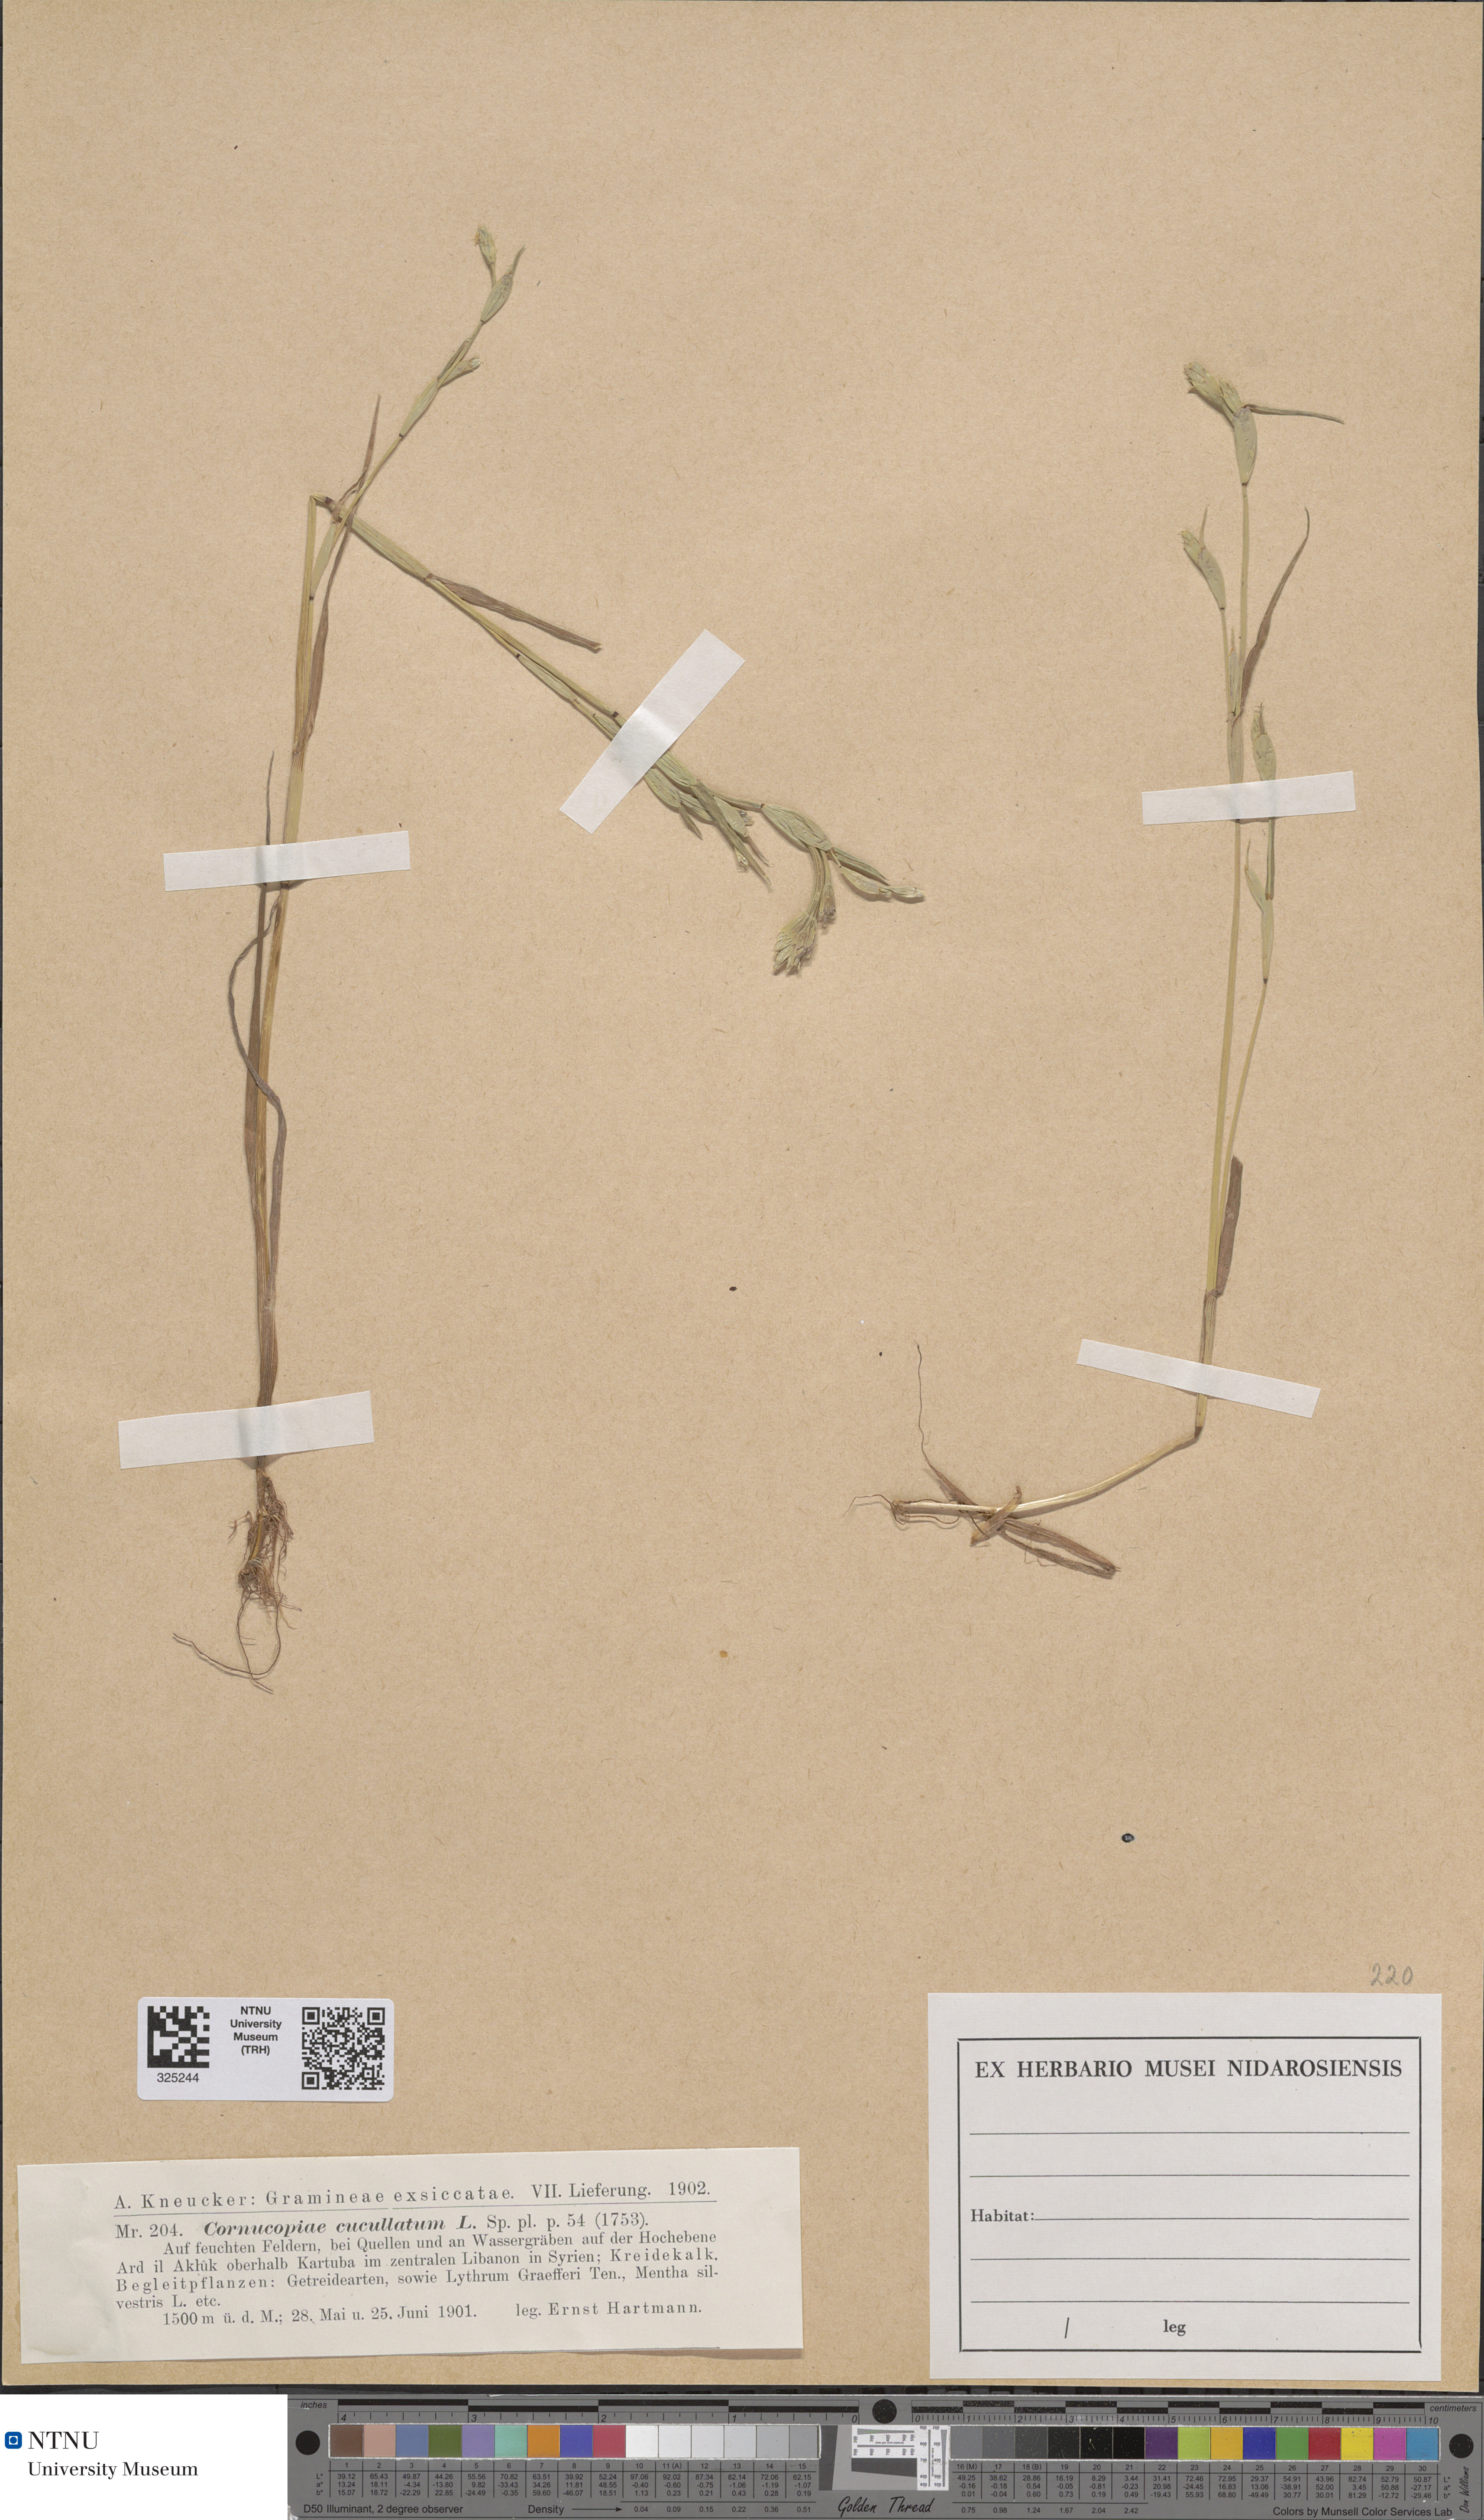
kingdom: Plantae
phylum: Tracheophyta
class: Liliopsida
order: Poales
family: Poaceae
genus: Cornucopiae
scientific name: Cornucopiae cucullatum
